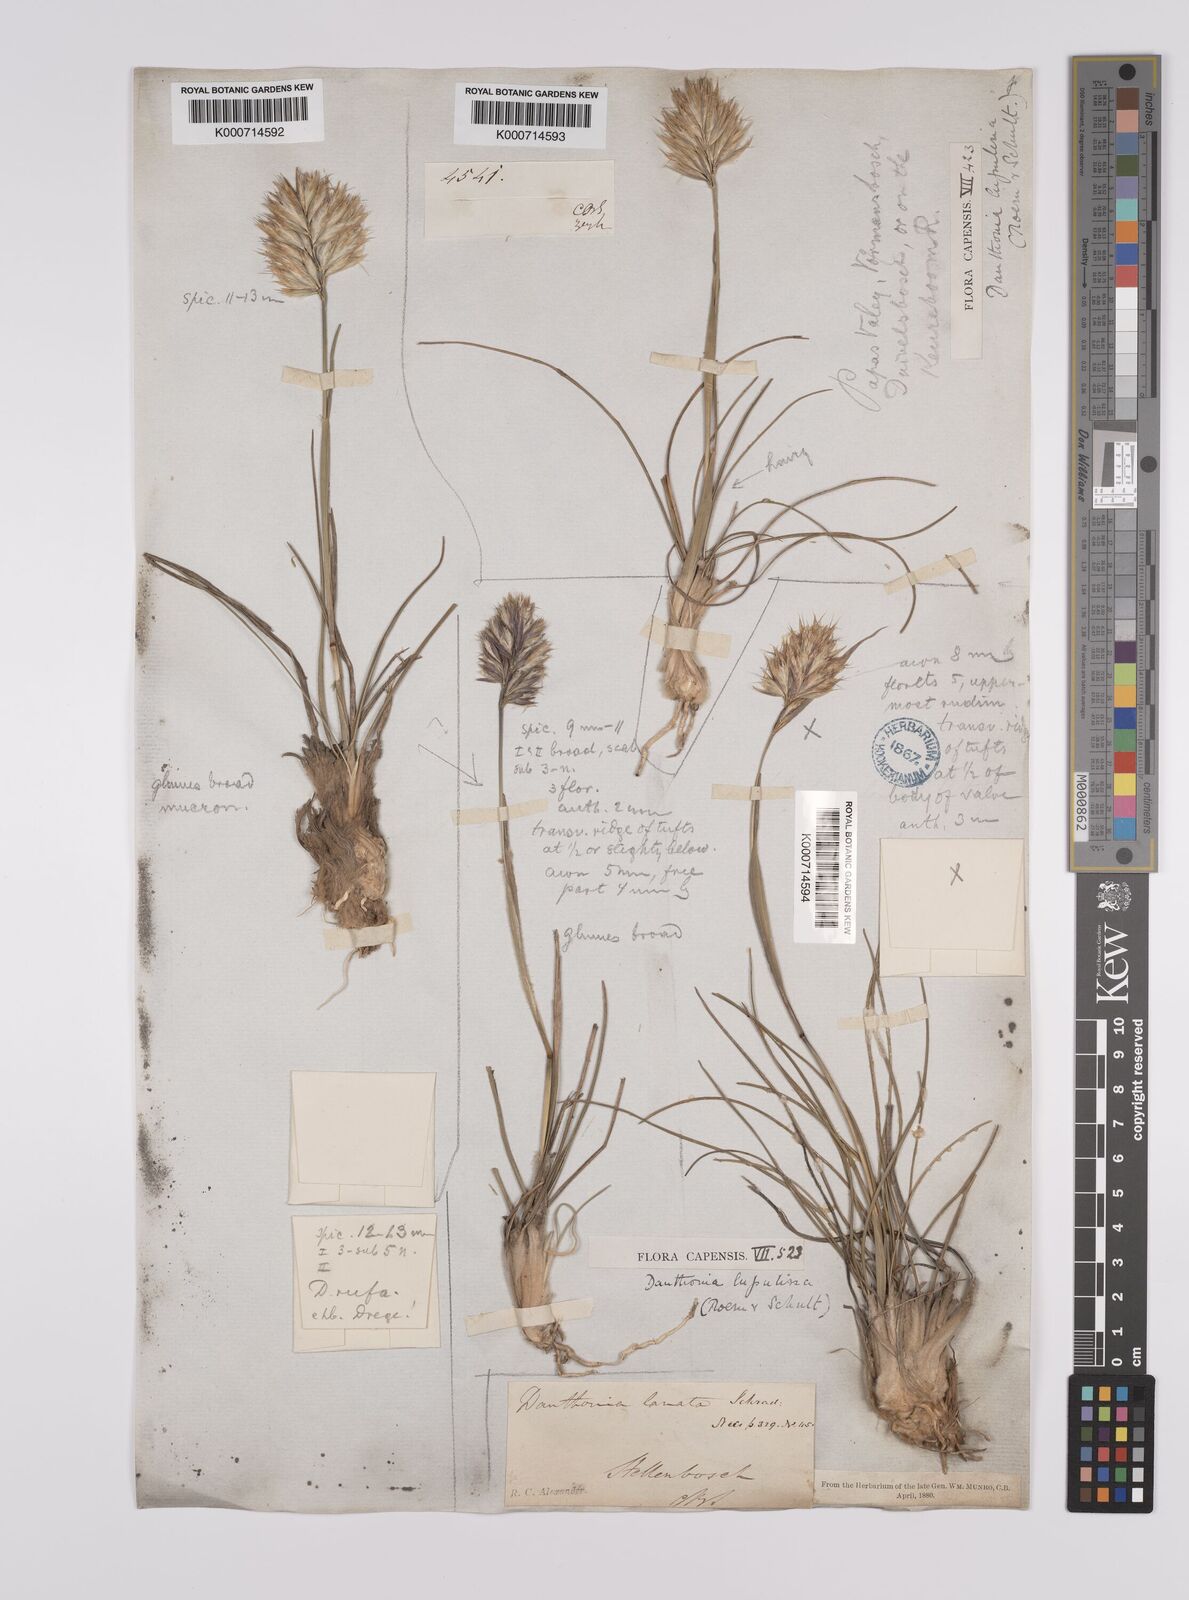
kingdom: Plantae
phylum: Tracheophyta
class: Liliopsida
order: Poales
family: Poaceae
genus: Rytidosperma
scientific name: Rytidosperma
